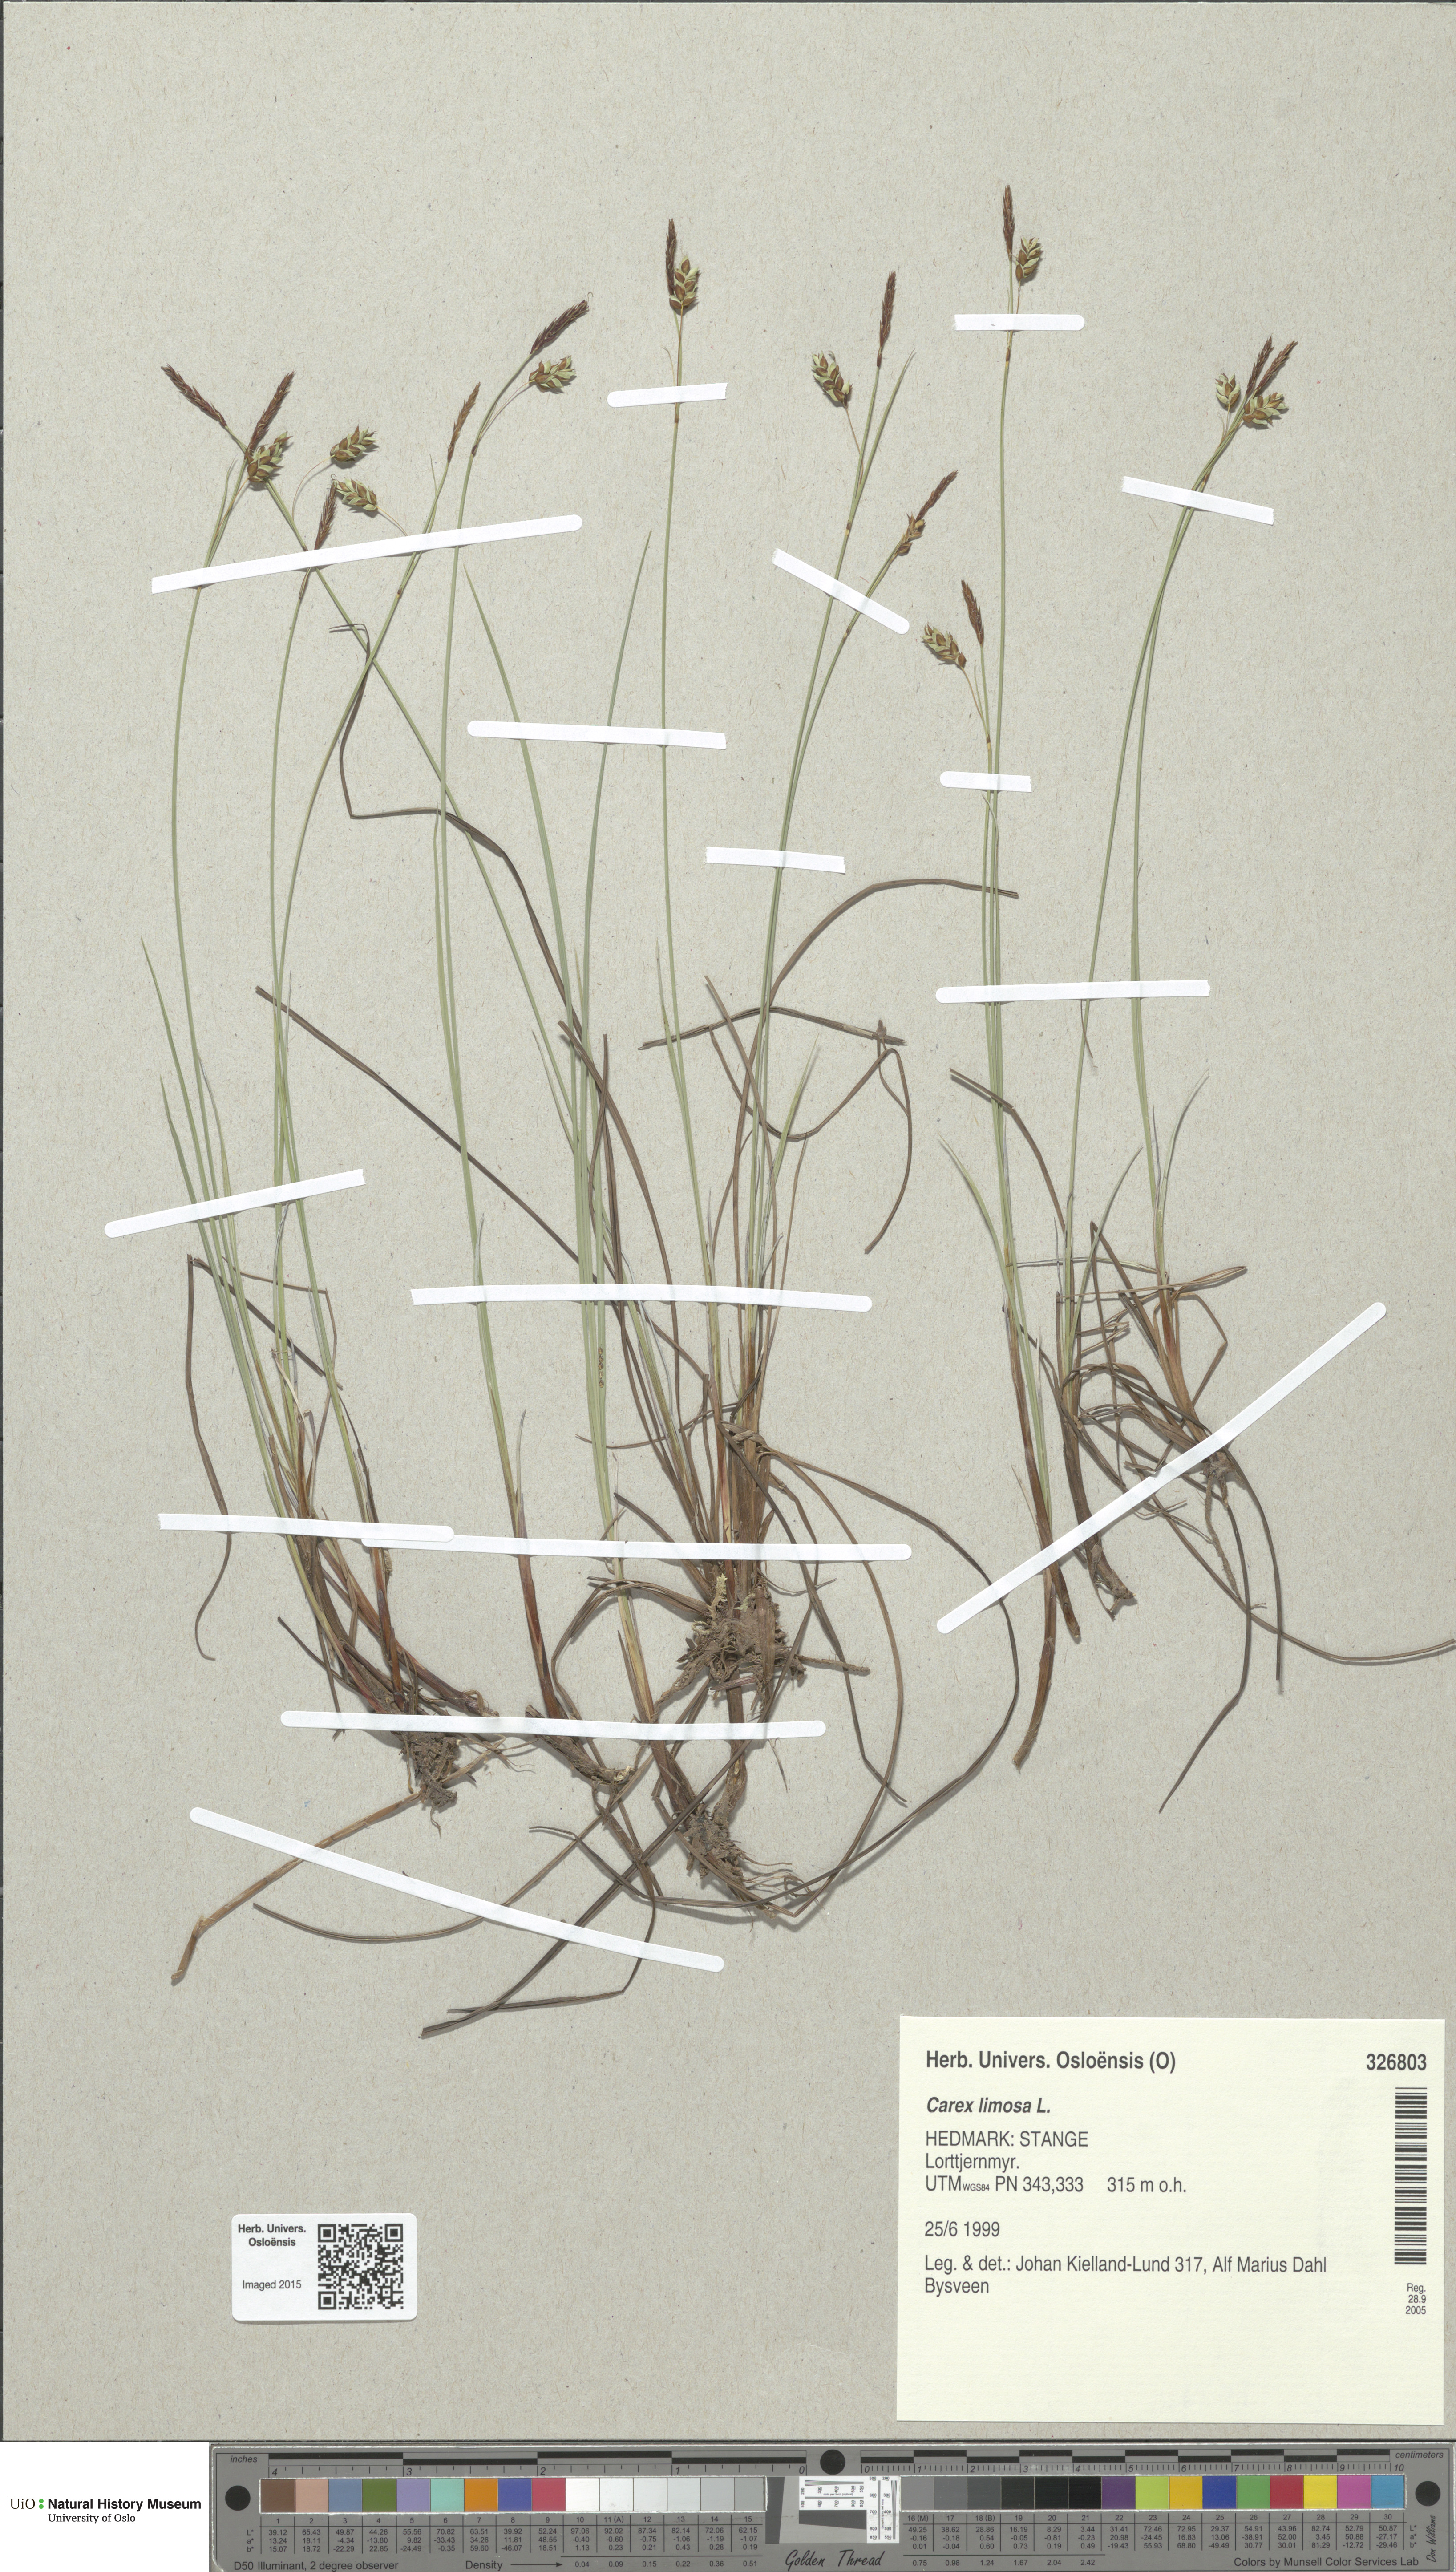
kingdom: Plantae
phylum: Tracheophyta
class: Liliopsida
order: Poales
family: Cyperaceae
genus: Carex
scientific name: Carex limosa
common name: Bog sedge
